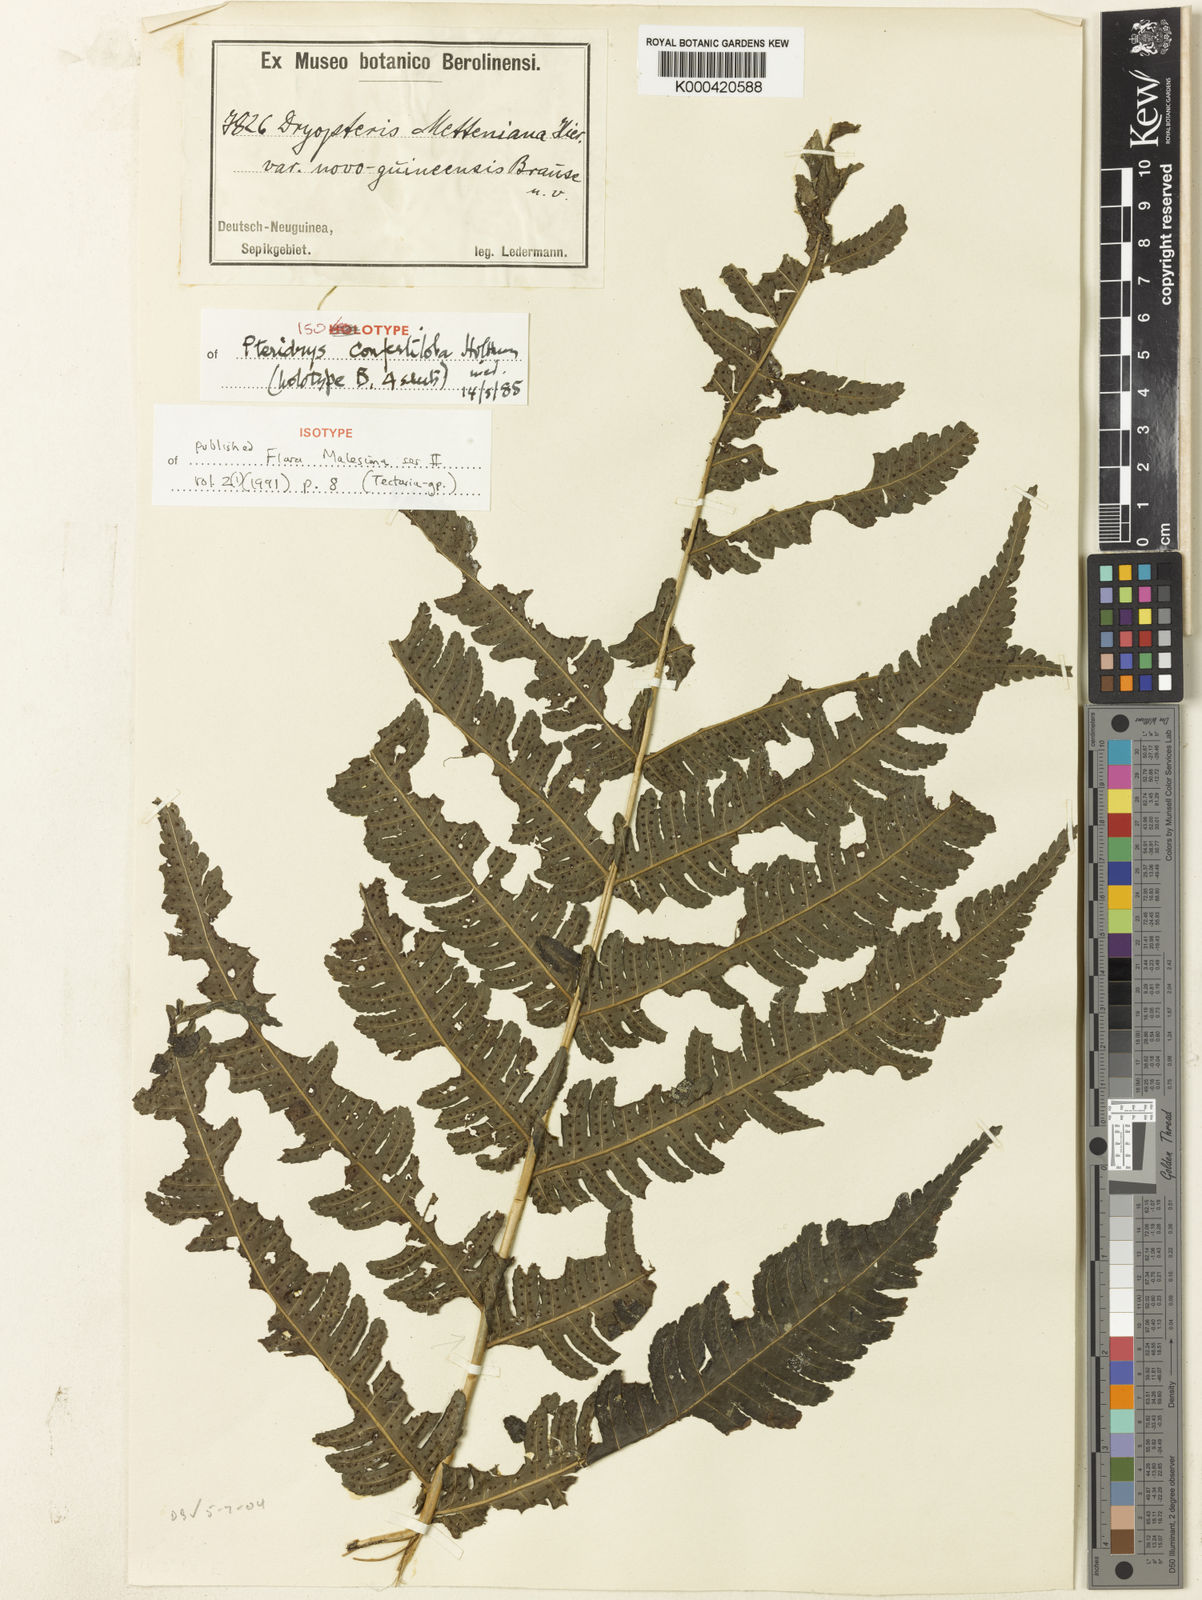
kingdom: Plantae
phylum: Tracheophyta
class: Polypodiopsida
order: Polypodiales
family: Tectariaceae
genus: Pteridrys
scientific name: Pteridrys confertiloba
